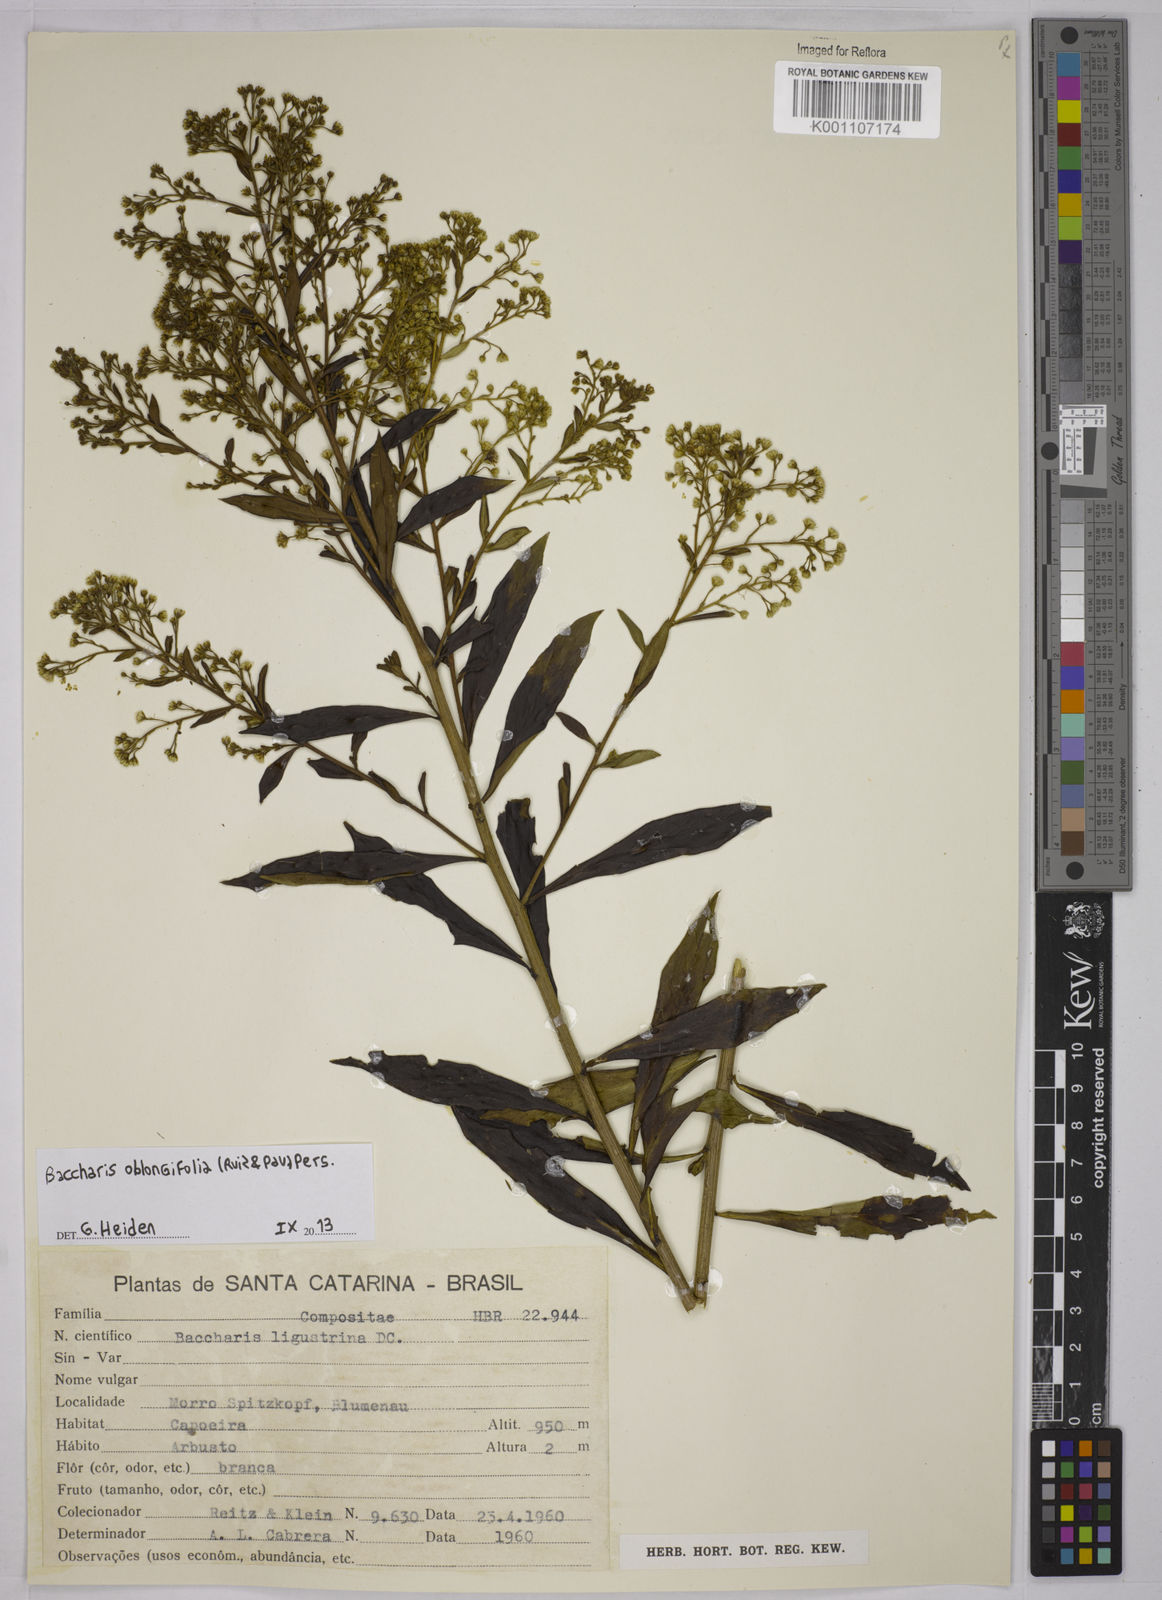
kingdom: Plantae
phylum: Tracheophyta
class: Magnoliopsida
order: Asterales
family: Asteraceae
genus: Baccharis
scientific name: Baccharis oblongifolia
